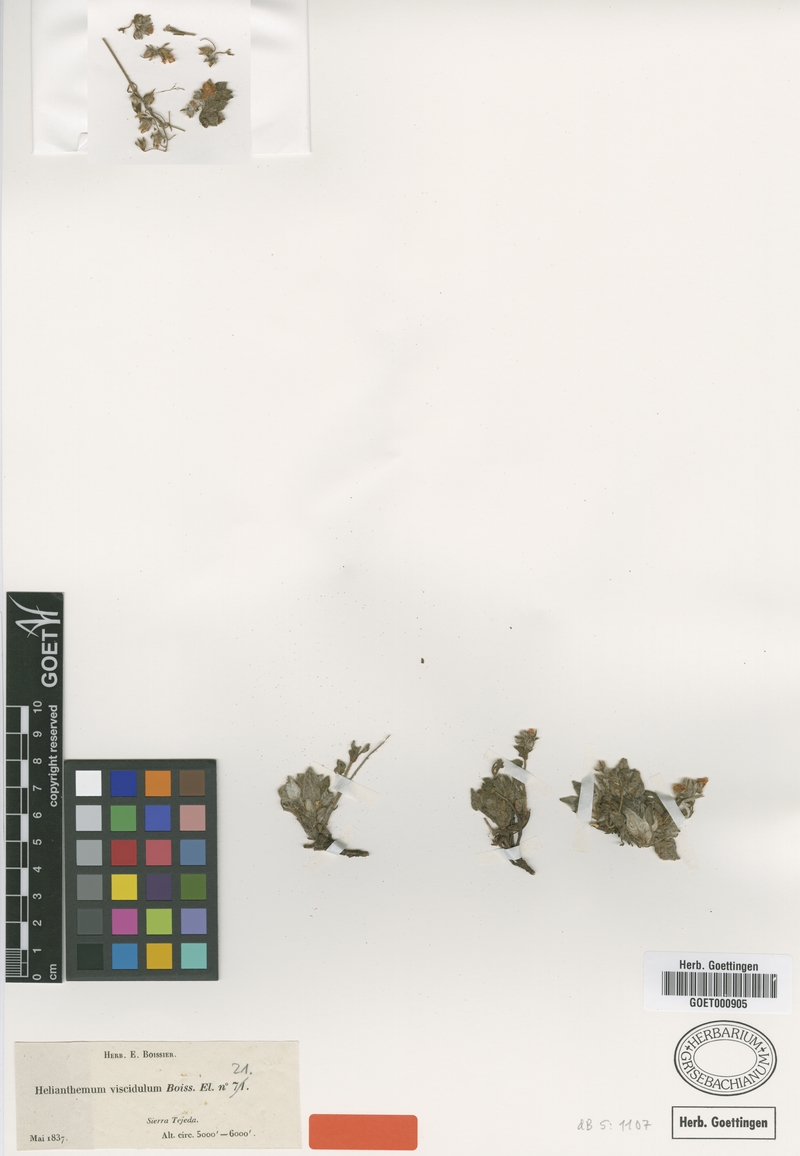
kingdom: Plantae
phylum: Tracheophyta
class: Magnoliopsida
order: Malvales
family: Cistaceae
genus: Helianthemum
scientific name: Helianthemum viscidulum
